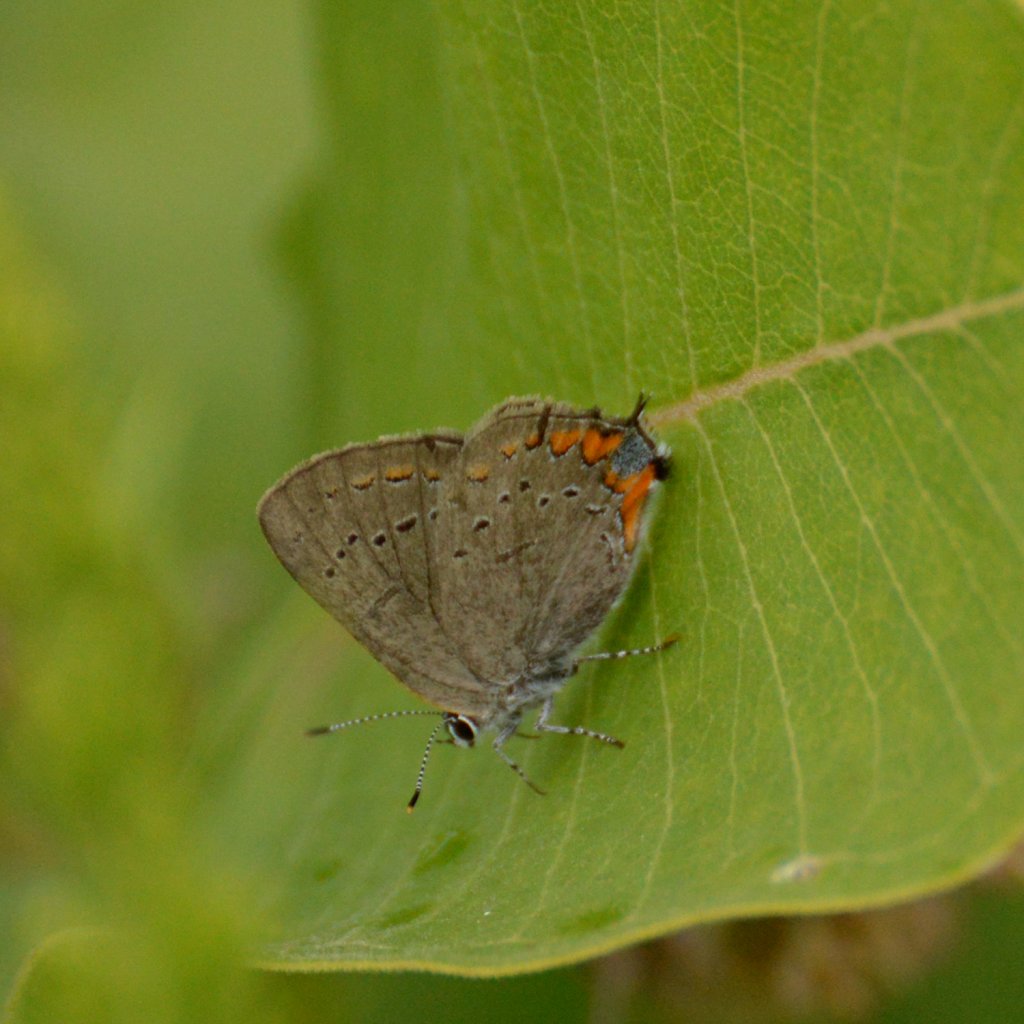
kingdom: Animalia
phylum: Arthropoda
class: Insecta
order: Lepidoptera
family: Lycaenidae
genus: Strymon
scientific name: Strymon acadica
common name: Acadian Hairstreak
